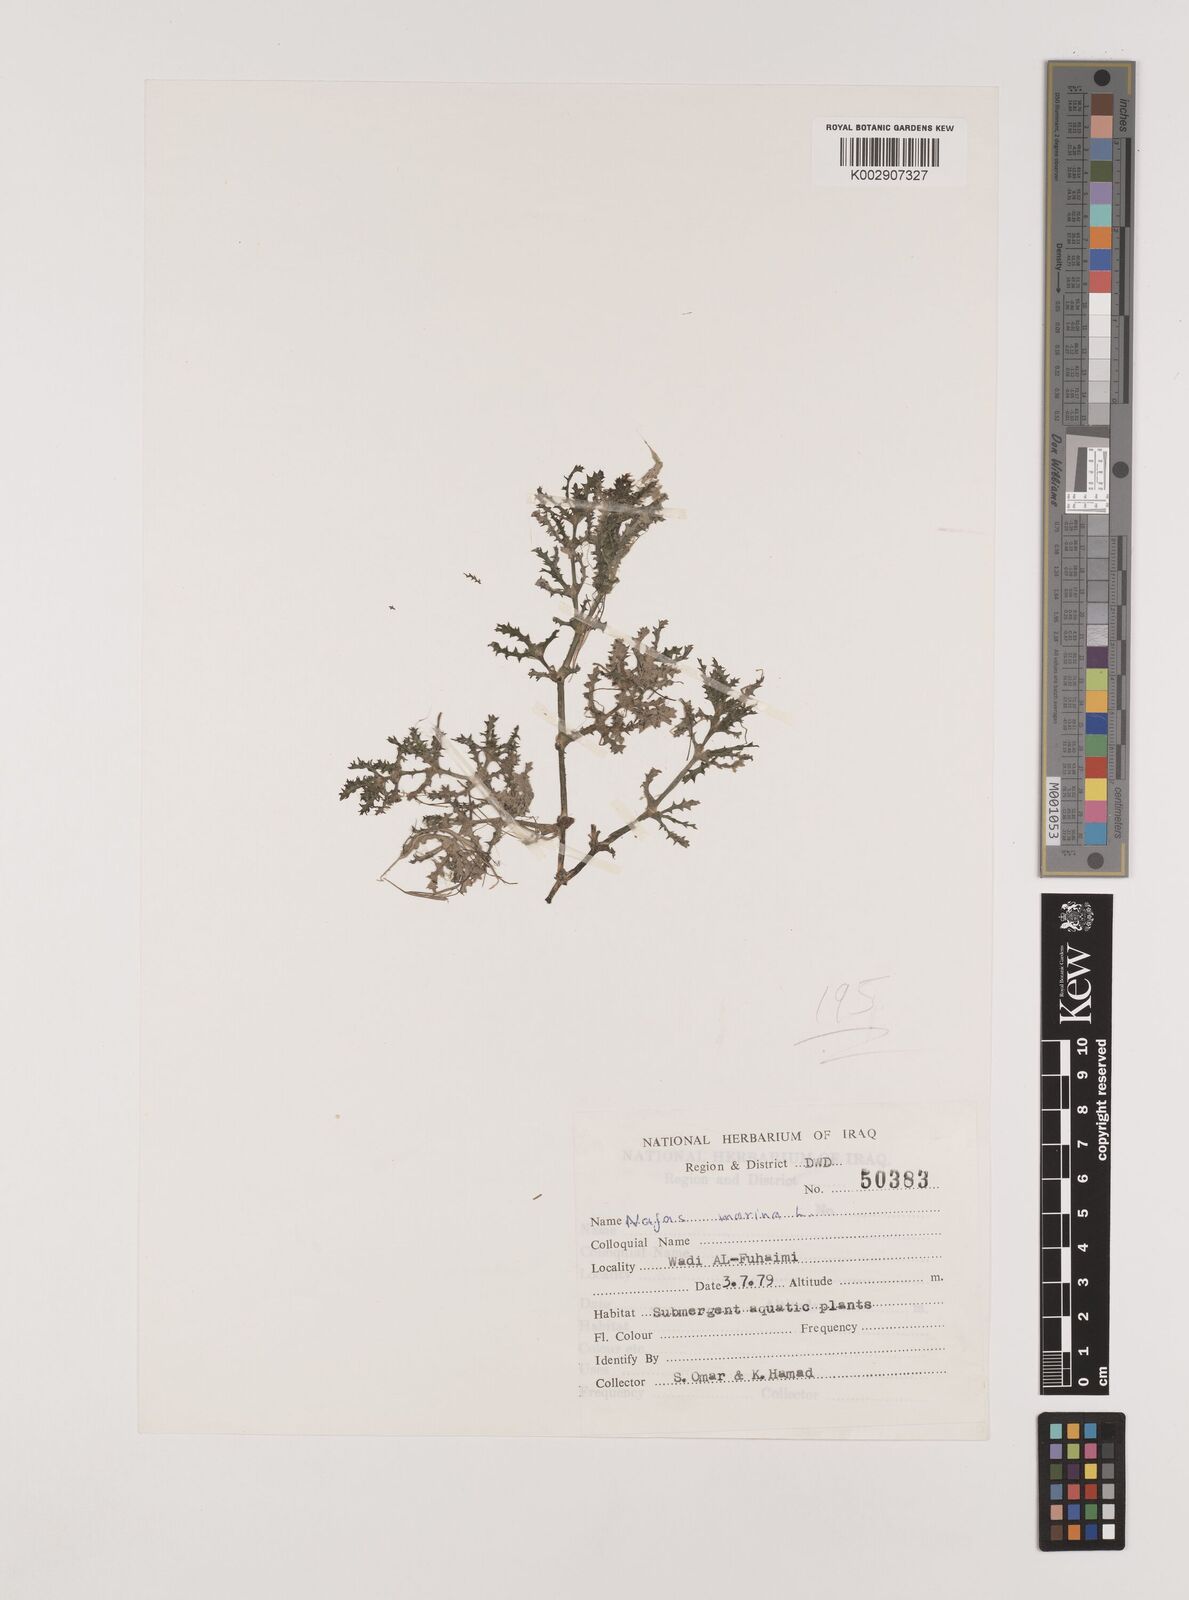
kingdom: Plantae
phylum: Tracheophyta
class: Liliopsida
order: Alismatales
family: Hydrocharitaceae
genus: Najas
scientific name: Najas marina
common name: Holly-leaved naiad
